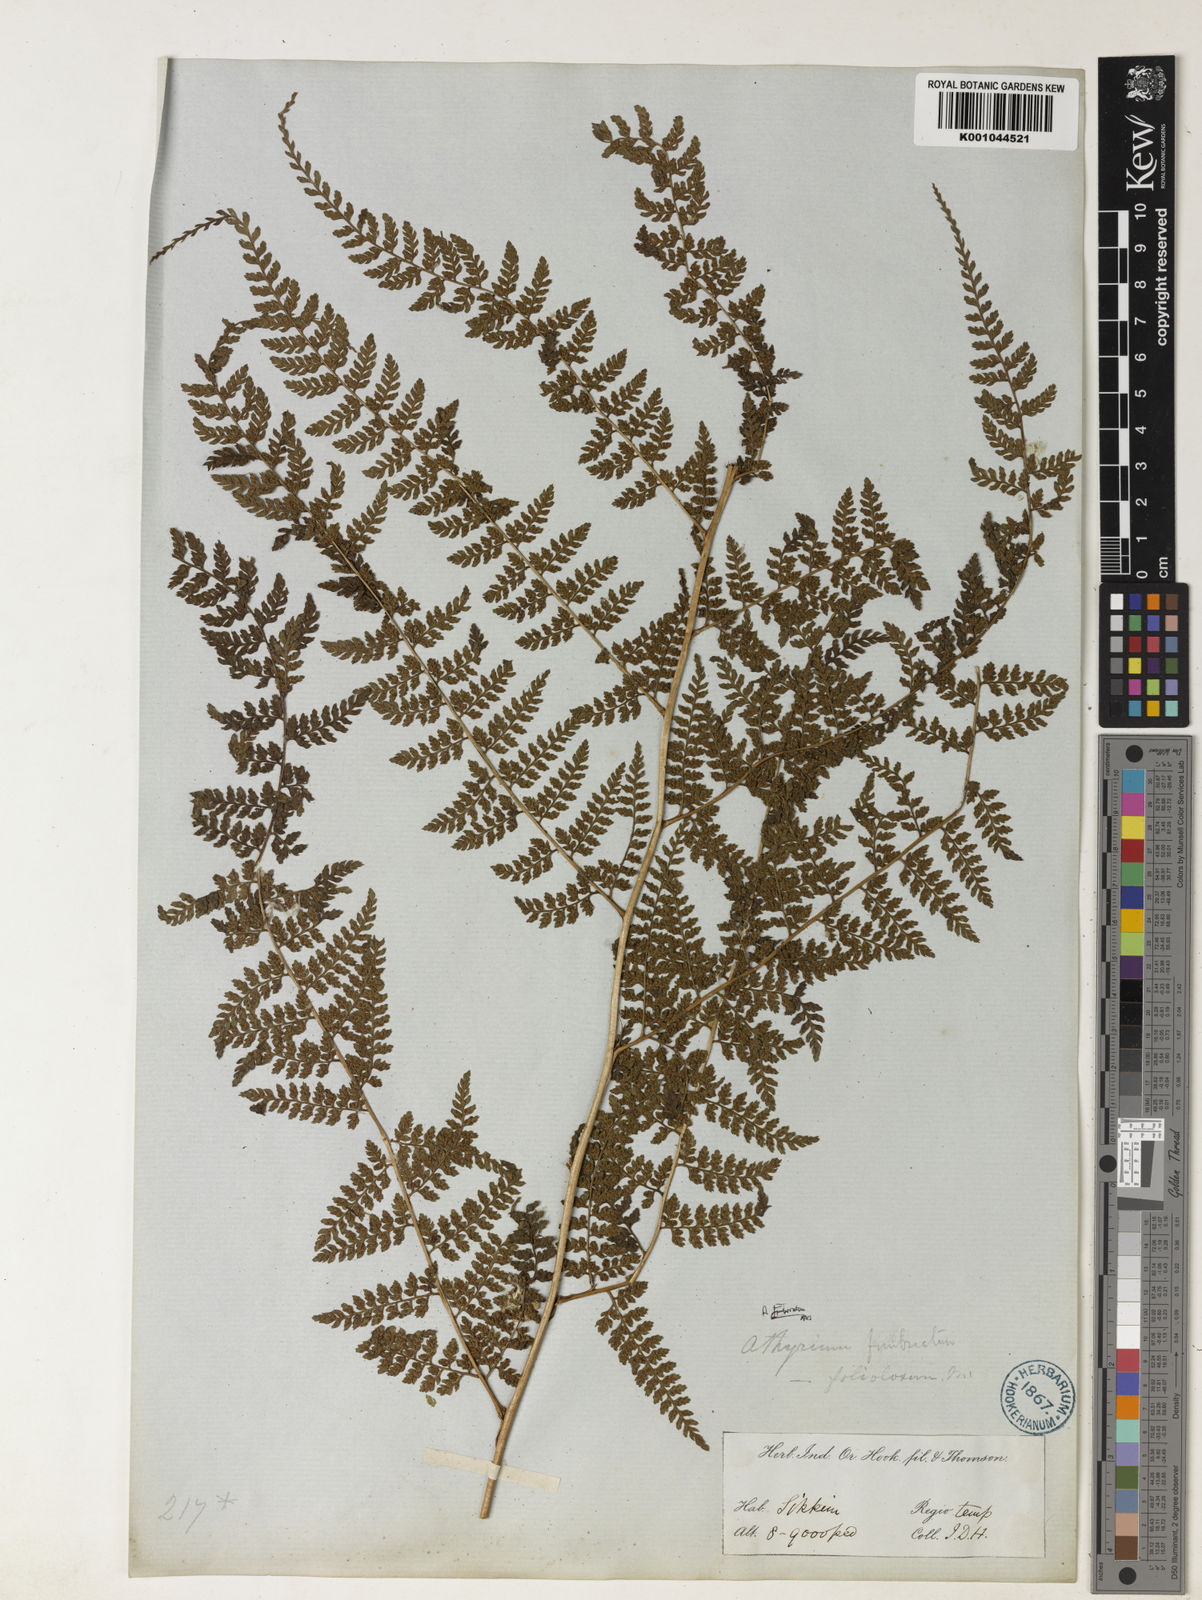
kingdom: Plantae
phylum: Tracheophyta
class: Polypodiopsida
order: Polypodiales
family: Athyriaceae
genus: Athyrium
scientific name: Athyrium fimbriatum
